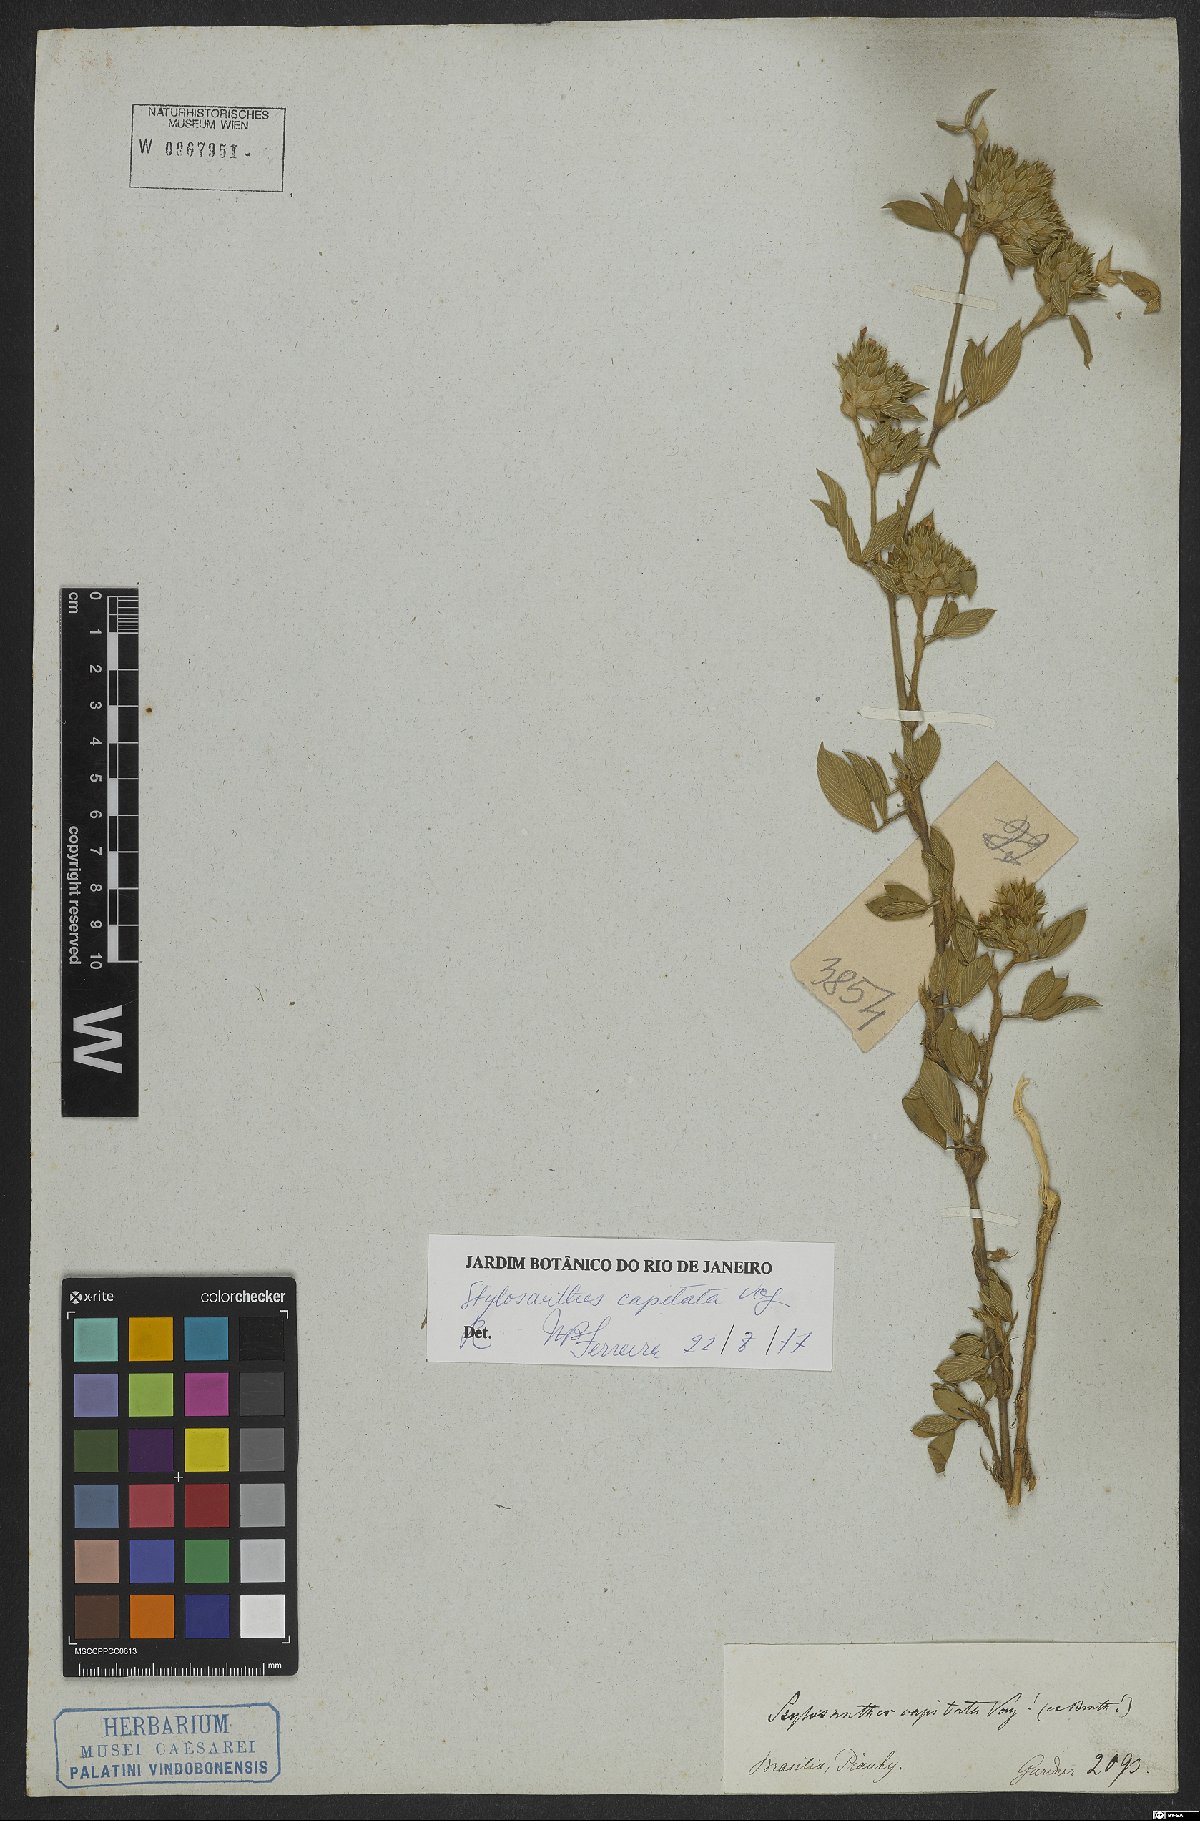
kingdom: Plantae
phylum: Tracheophyta
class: Magnoliopsida
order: Fabales
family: Fabaceae
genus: Stylosanthes
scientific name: Stylosanthes capitata
